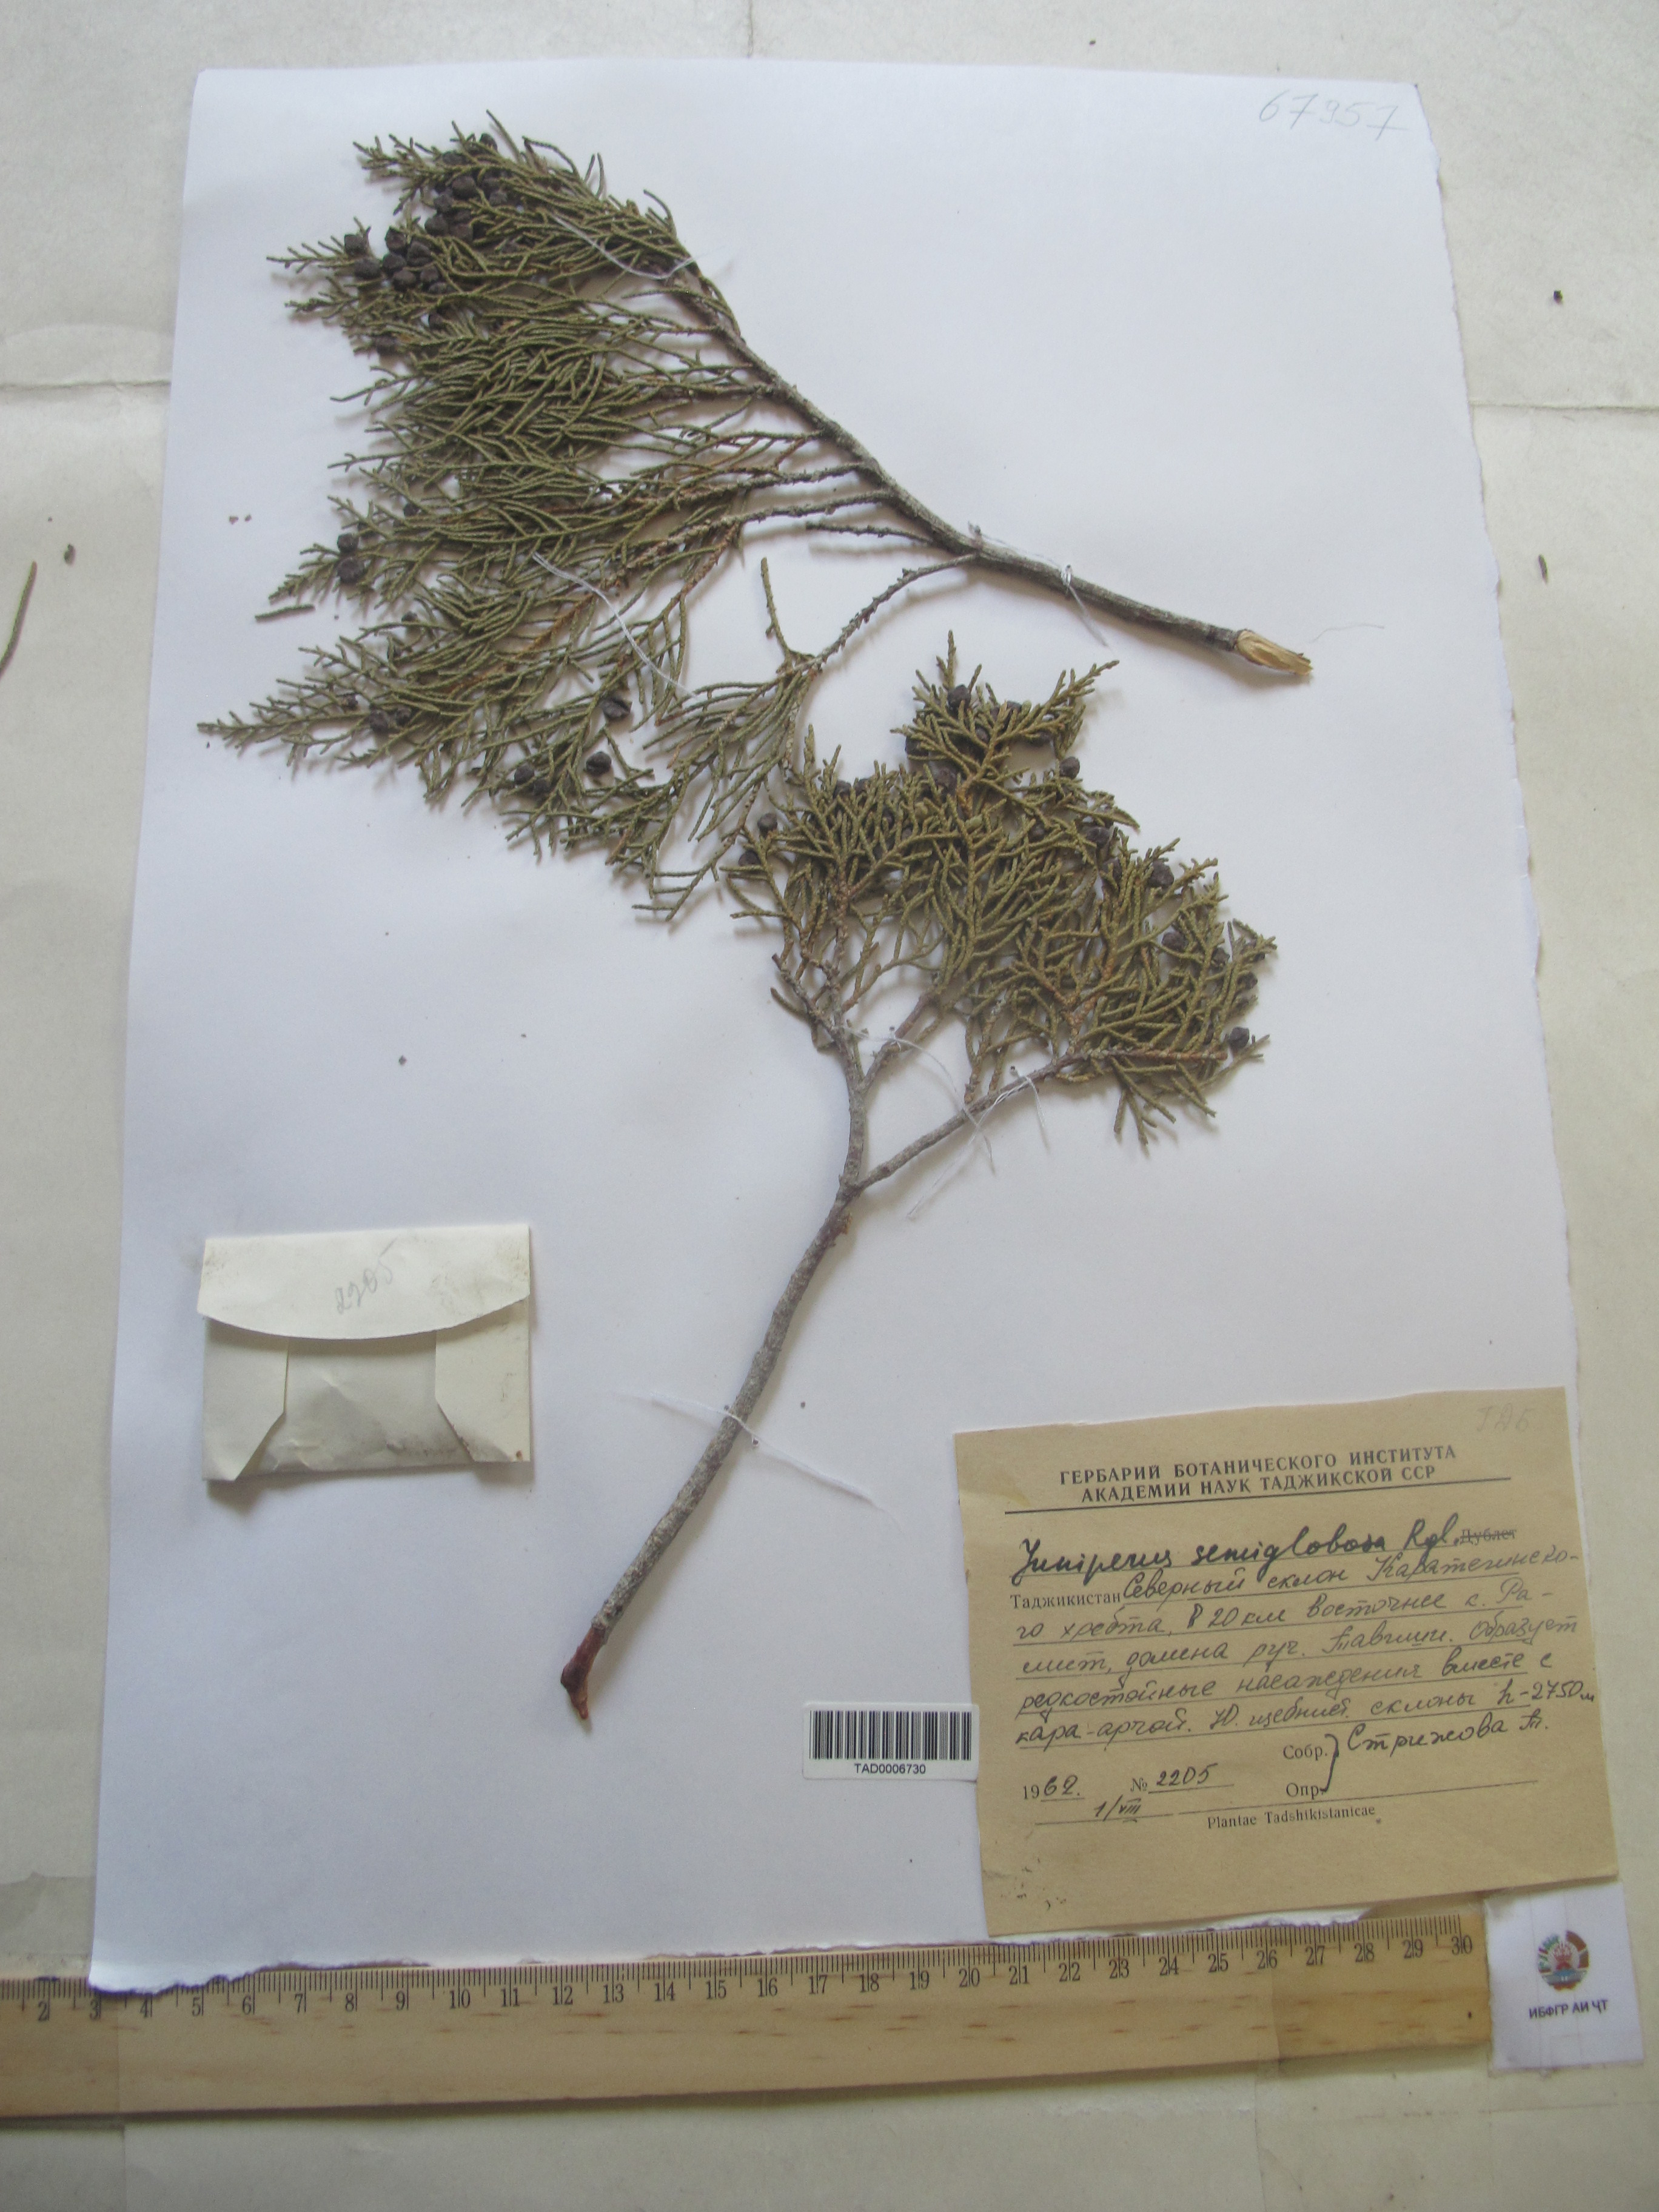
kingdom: Plantae
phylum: Tracheophyta
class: Pinopsida
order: Pinales
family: Cupressaceae
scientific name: Cupressaceae
